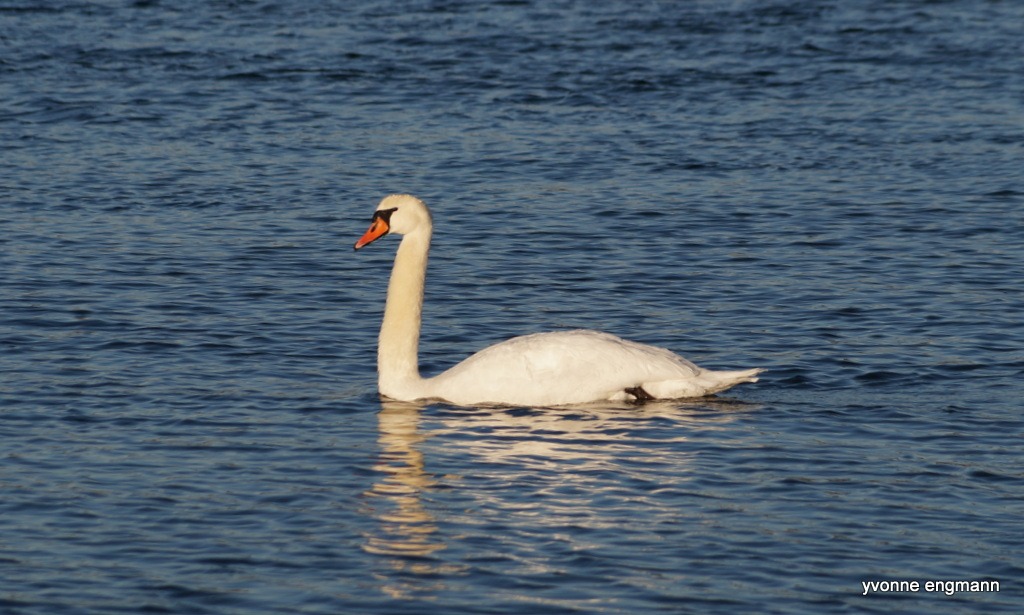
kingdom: Animalia
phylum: Chordata
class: Aves
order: Anseriformes
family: Anatidae
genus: Cygnus
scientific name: Cygnus olor
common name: Knopsvane
